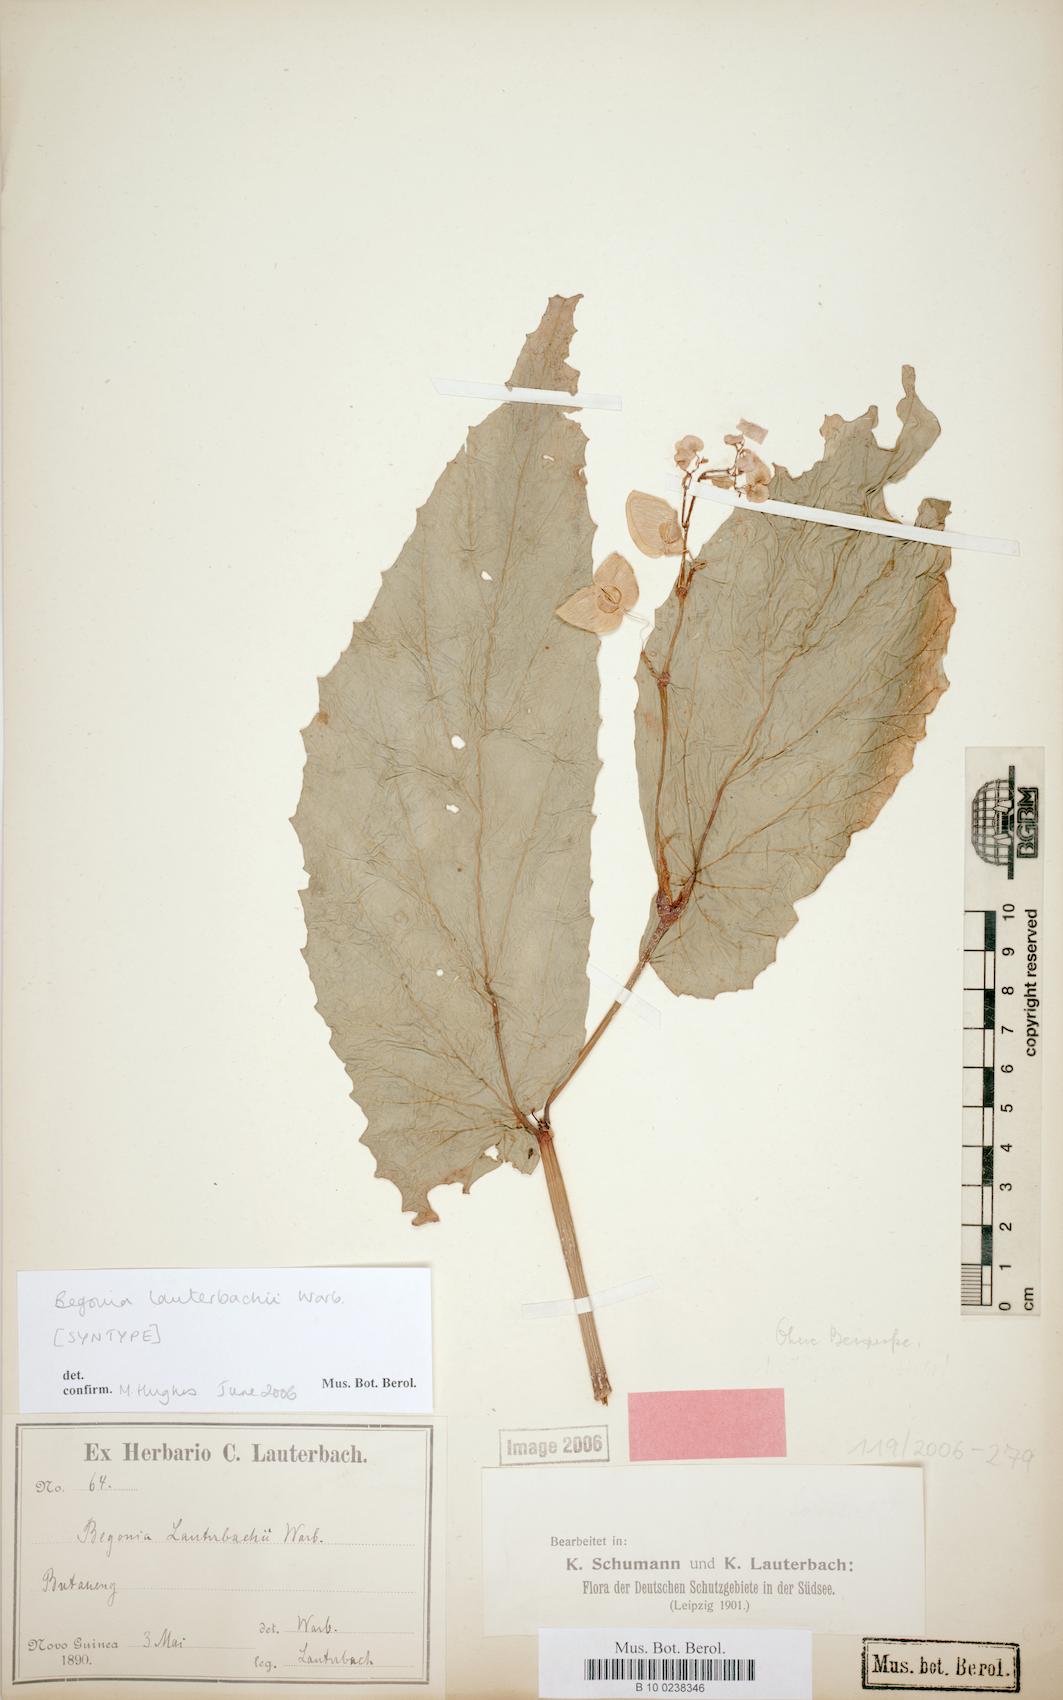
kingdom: Plantae
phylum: Tracheophyta
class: Magnoliopsida
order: Cucurbitales
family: Begoniaceae
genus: Begonia
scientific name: Begonia lauterbachii
